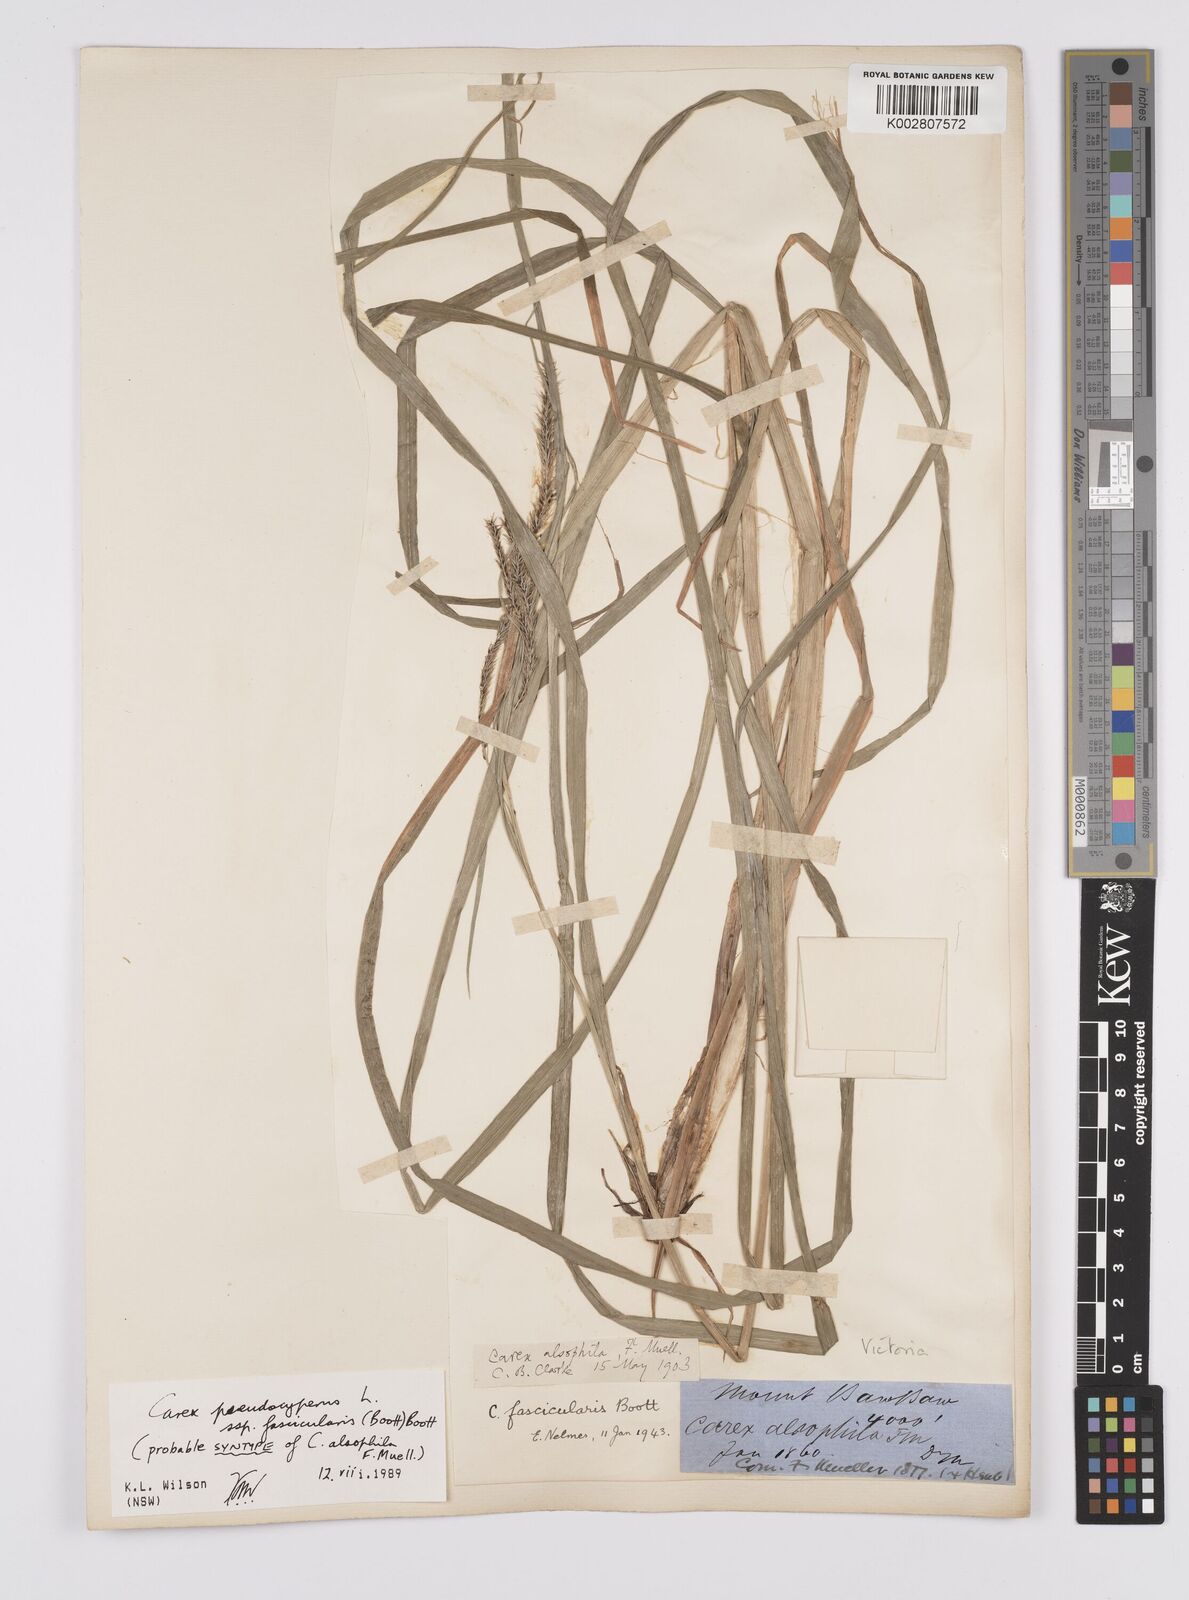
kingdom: Plantae
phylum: Tracheophyta
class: Liliopsida
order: Poales
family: Cyperaceae
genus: Carex
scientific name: Carex fascicularis
